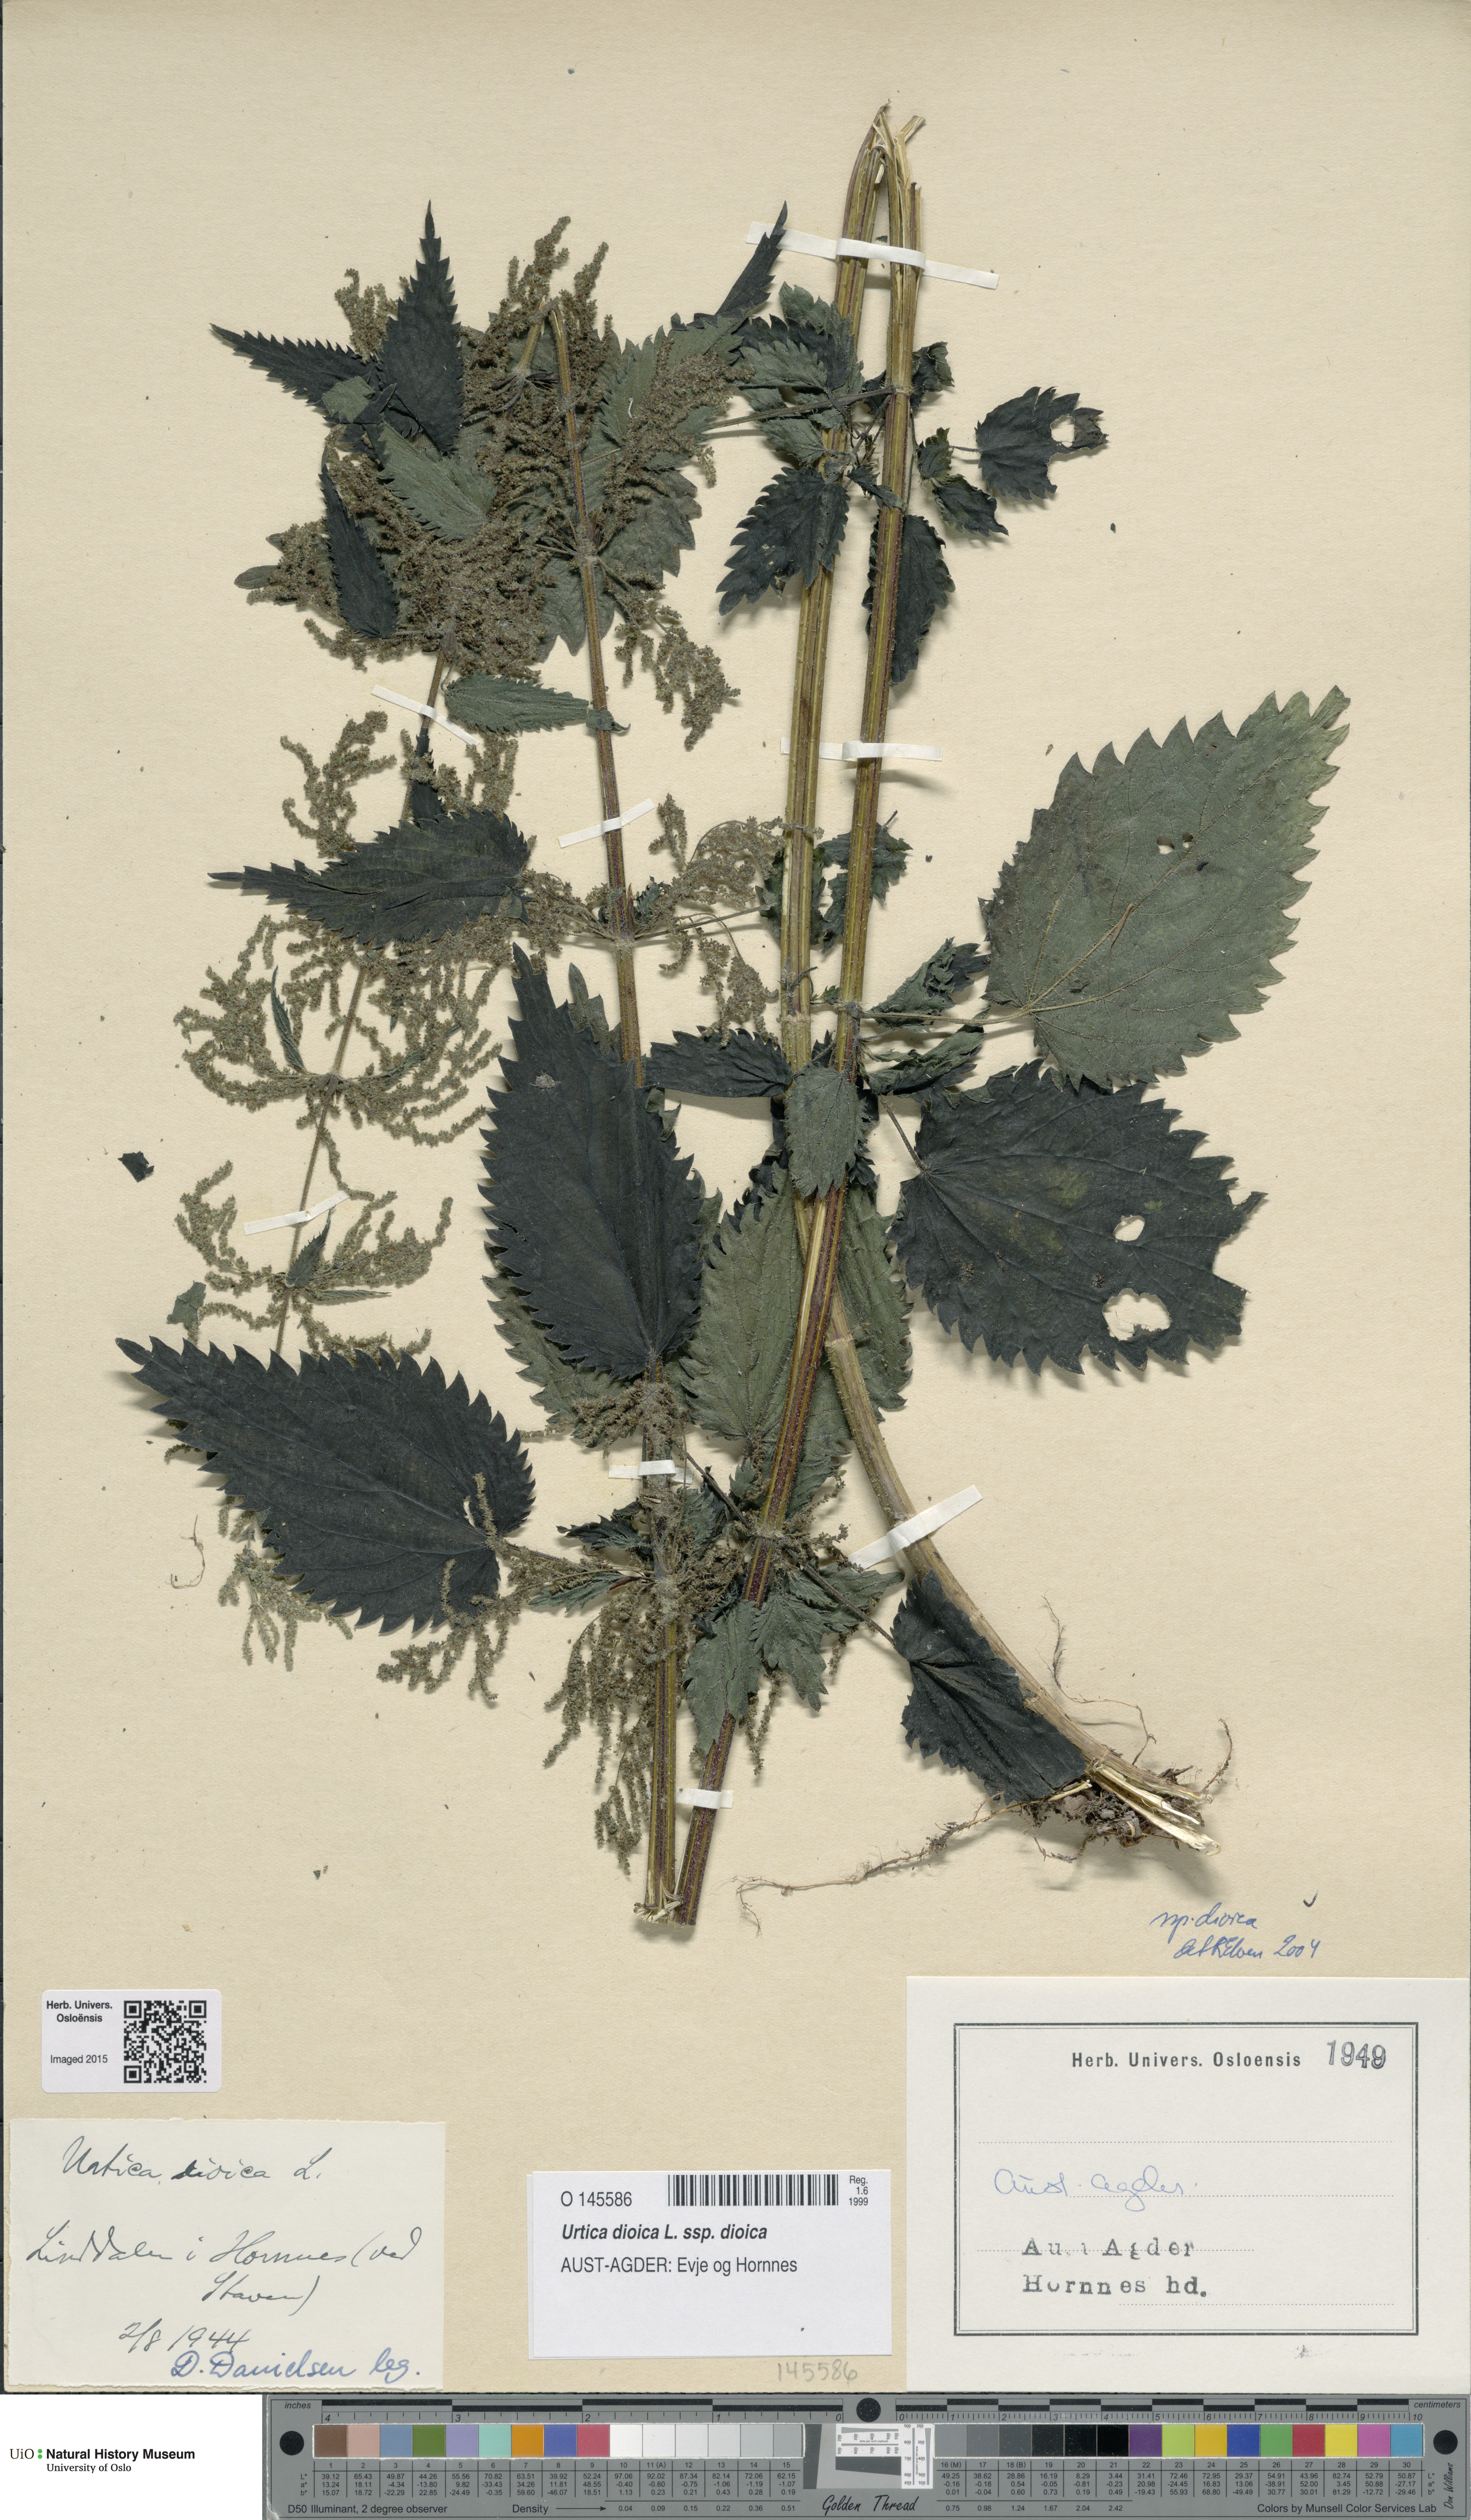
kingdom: Plantae
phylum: Tracheophyta
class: Magnoliopsida
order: Rosales
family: Urticaceae
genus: Urtica
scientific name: Urtica dioica
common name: Common nettle
